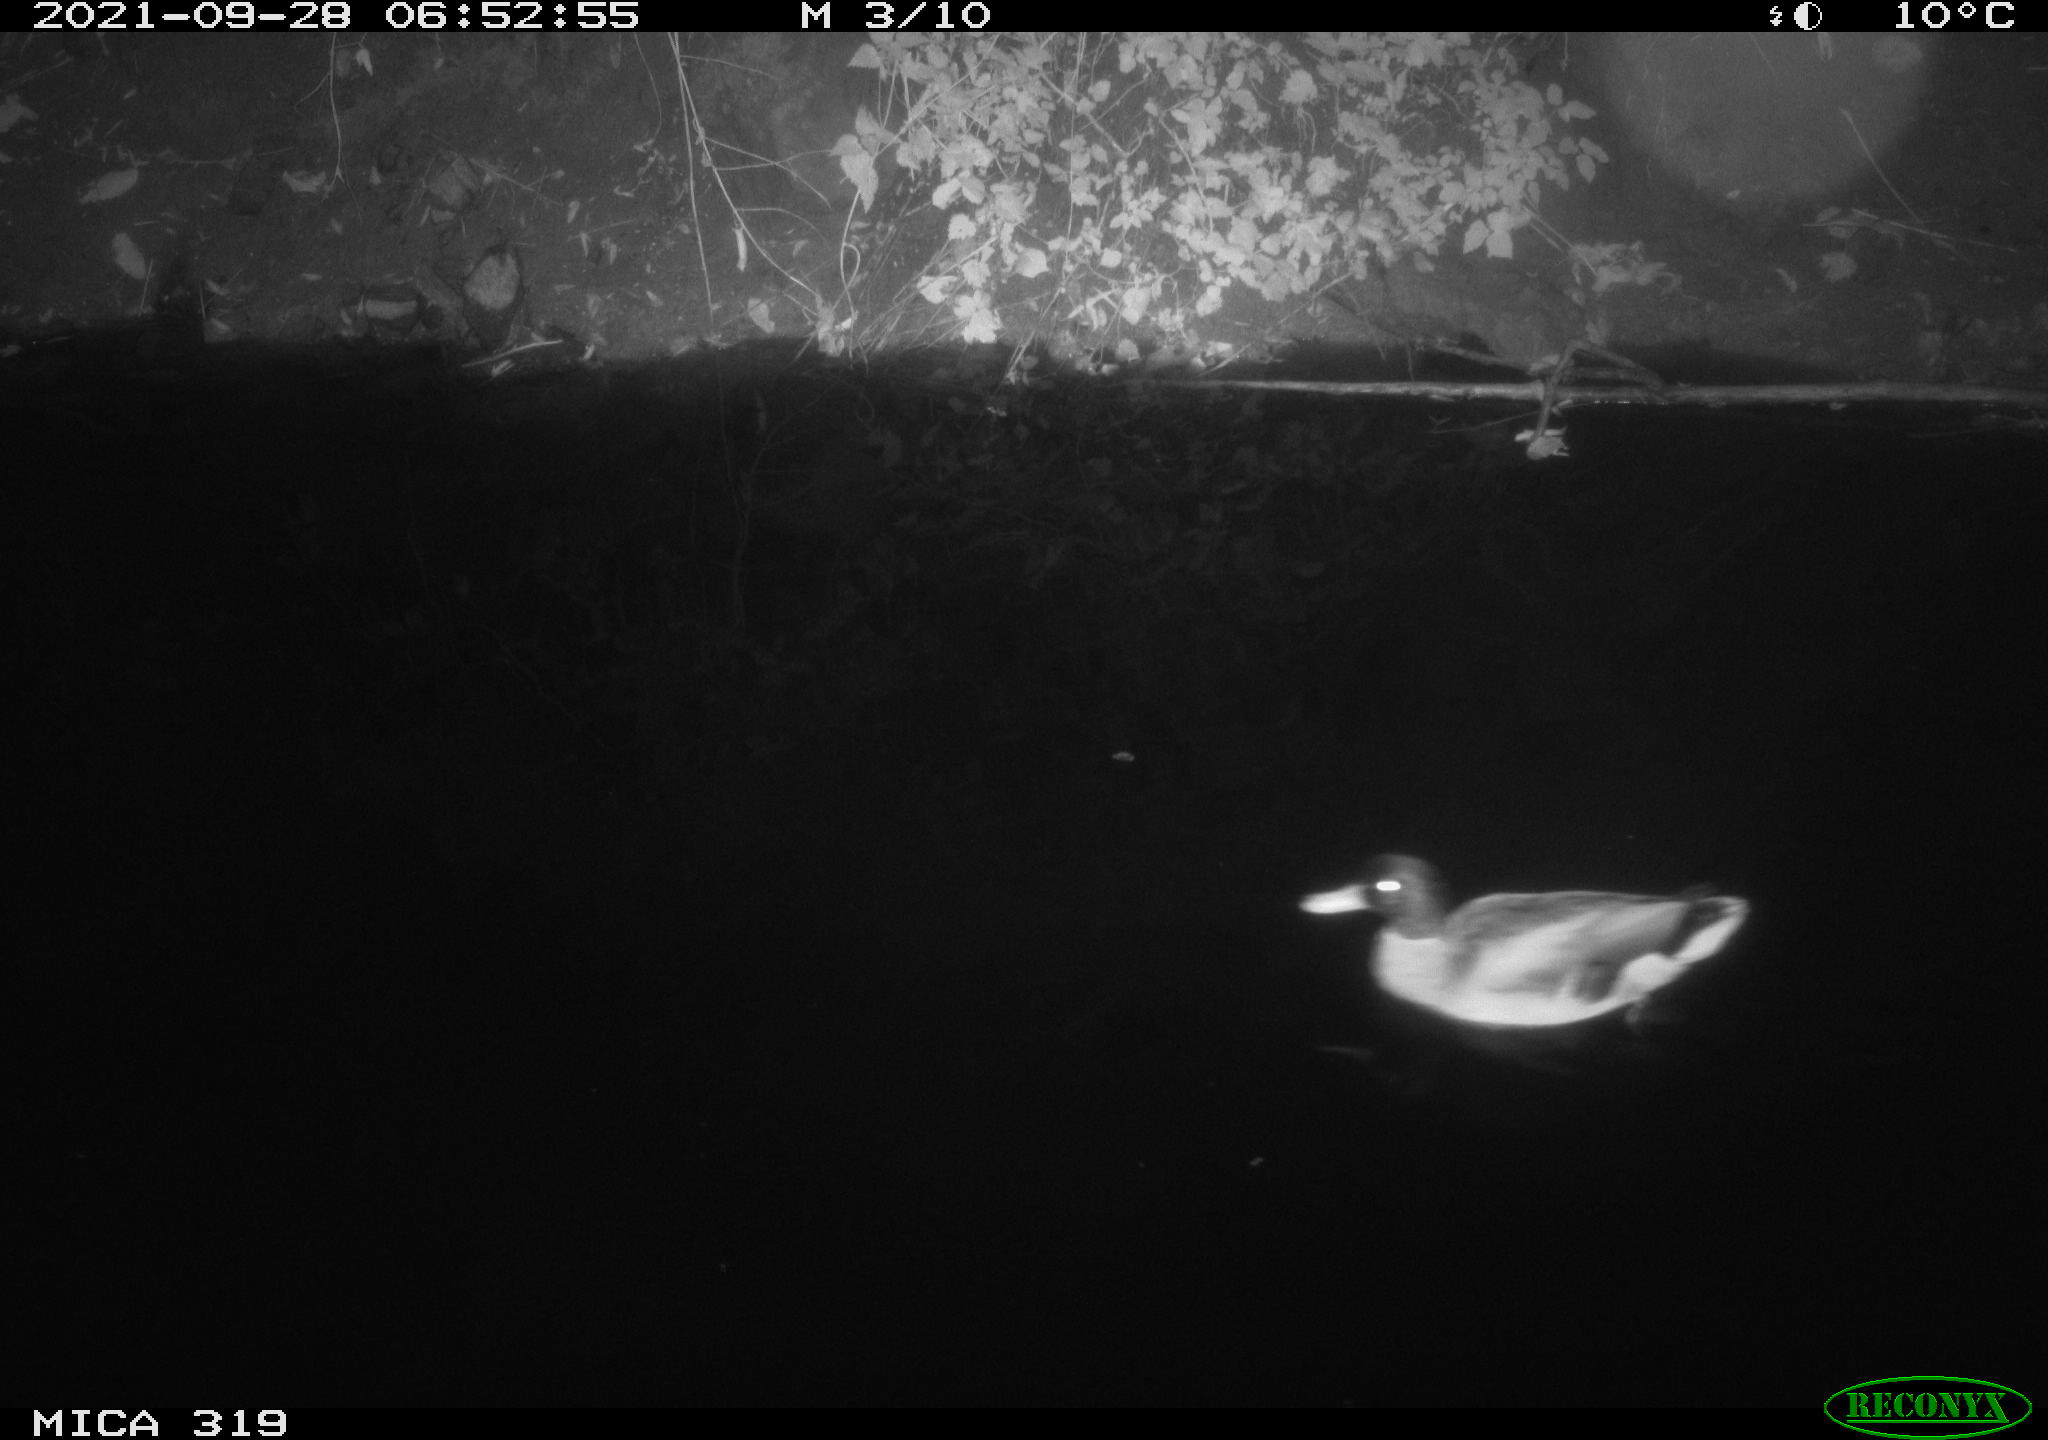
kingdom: Animalia
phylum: Chordata
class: Aves
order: Anseriformes
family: Anatidae
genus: Anas
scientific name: Anas platyrhynchos
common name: Mallard
